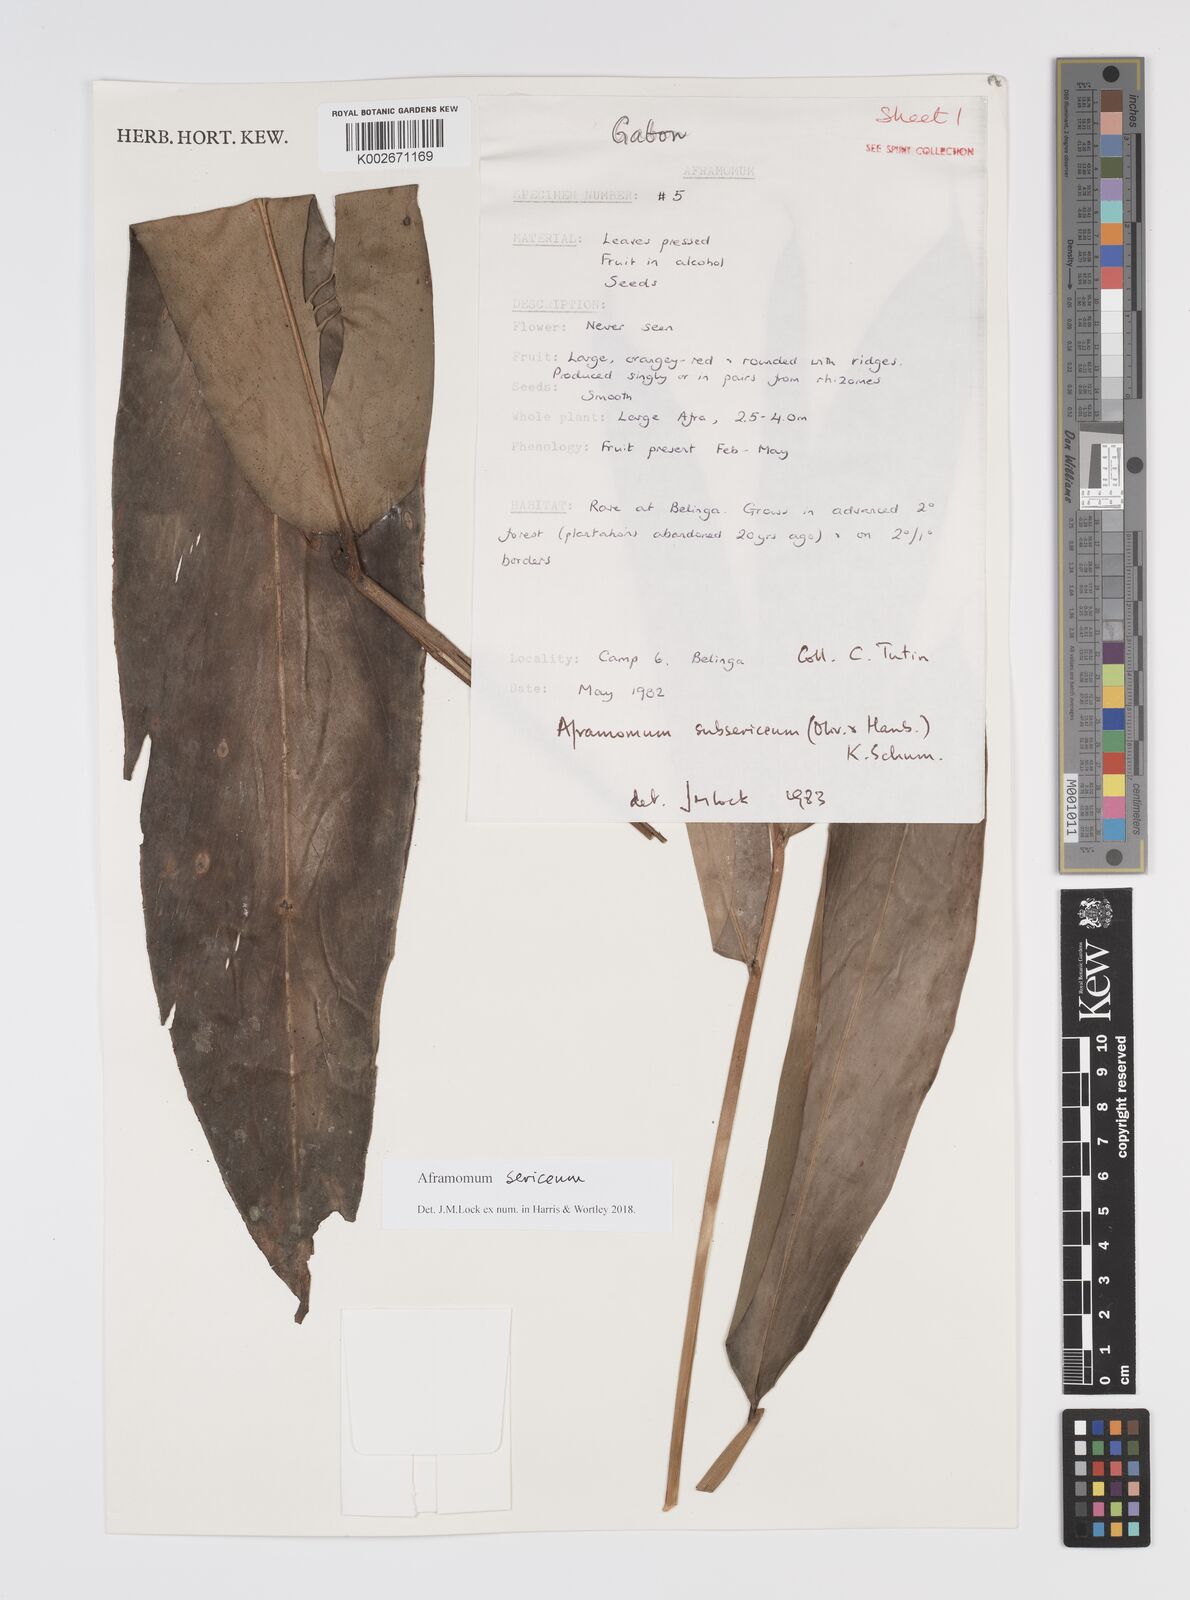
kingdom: Plantae
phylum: Tracheophyta
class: Liliopsida
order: Zingiberales
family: Zingiberaceae
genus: Aframomum
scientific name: Aframomum sericeum
